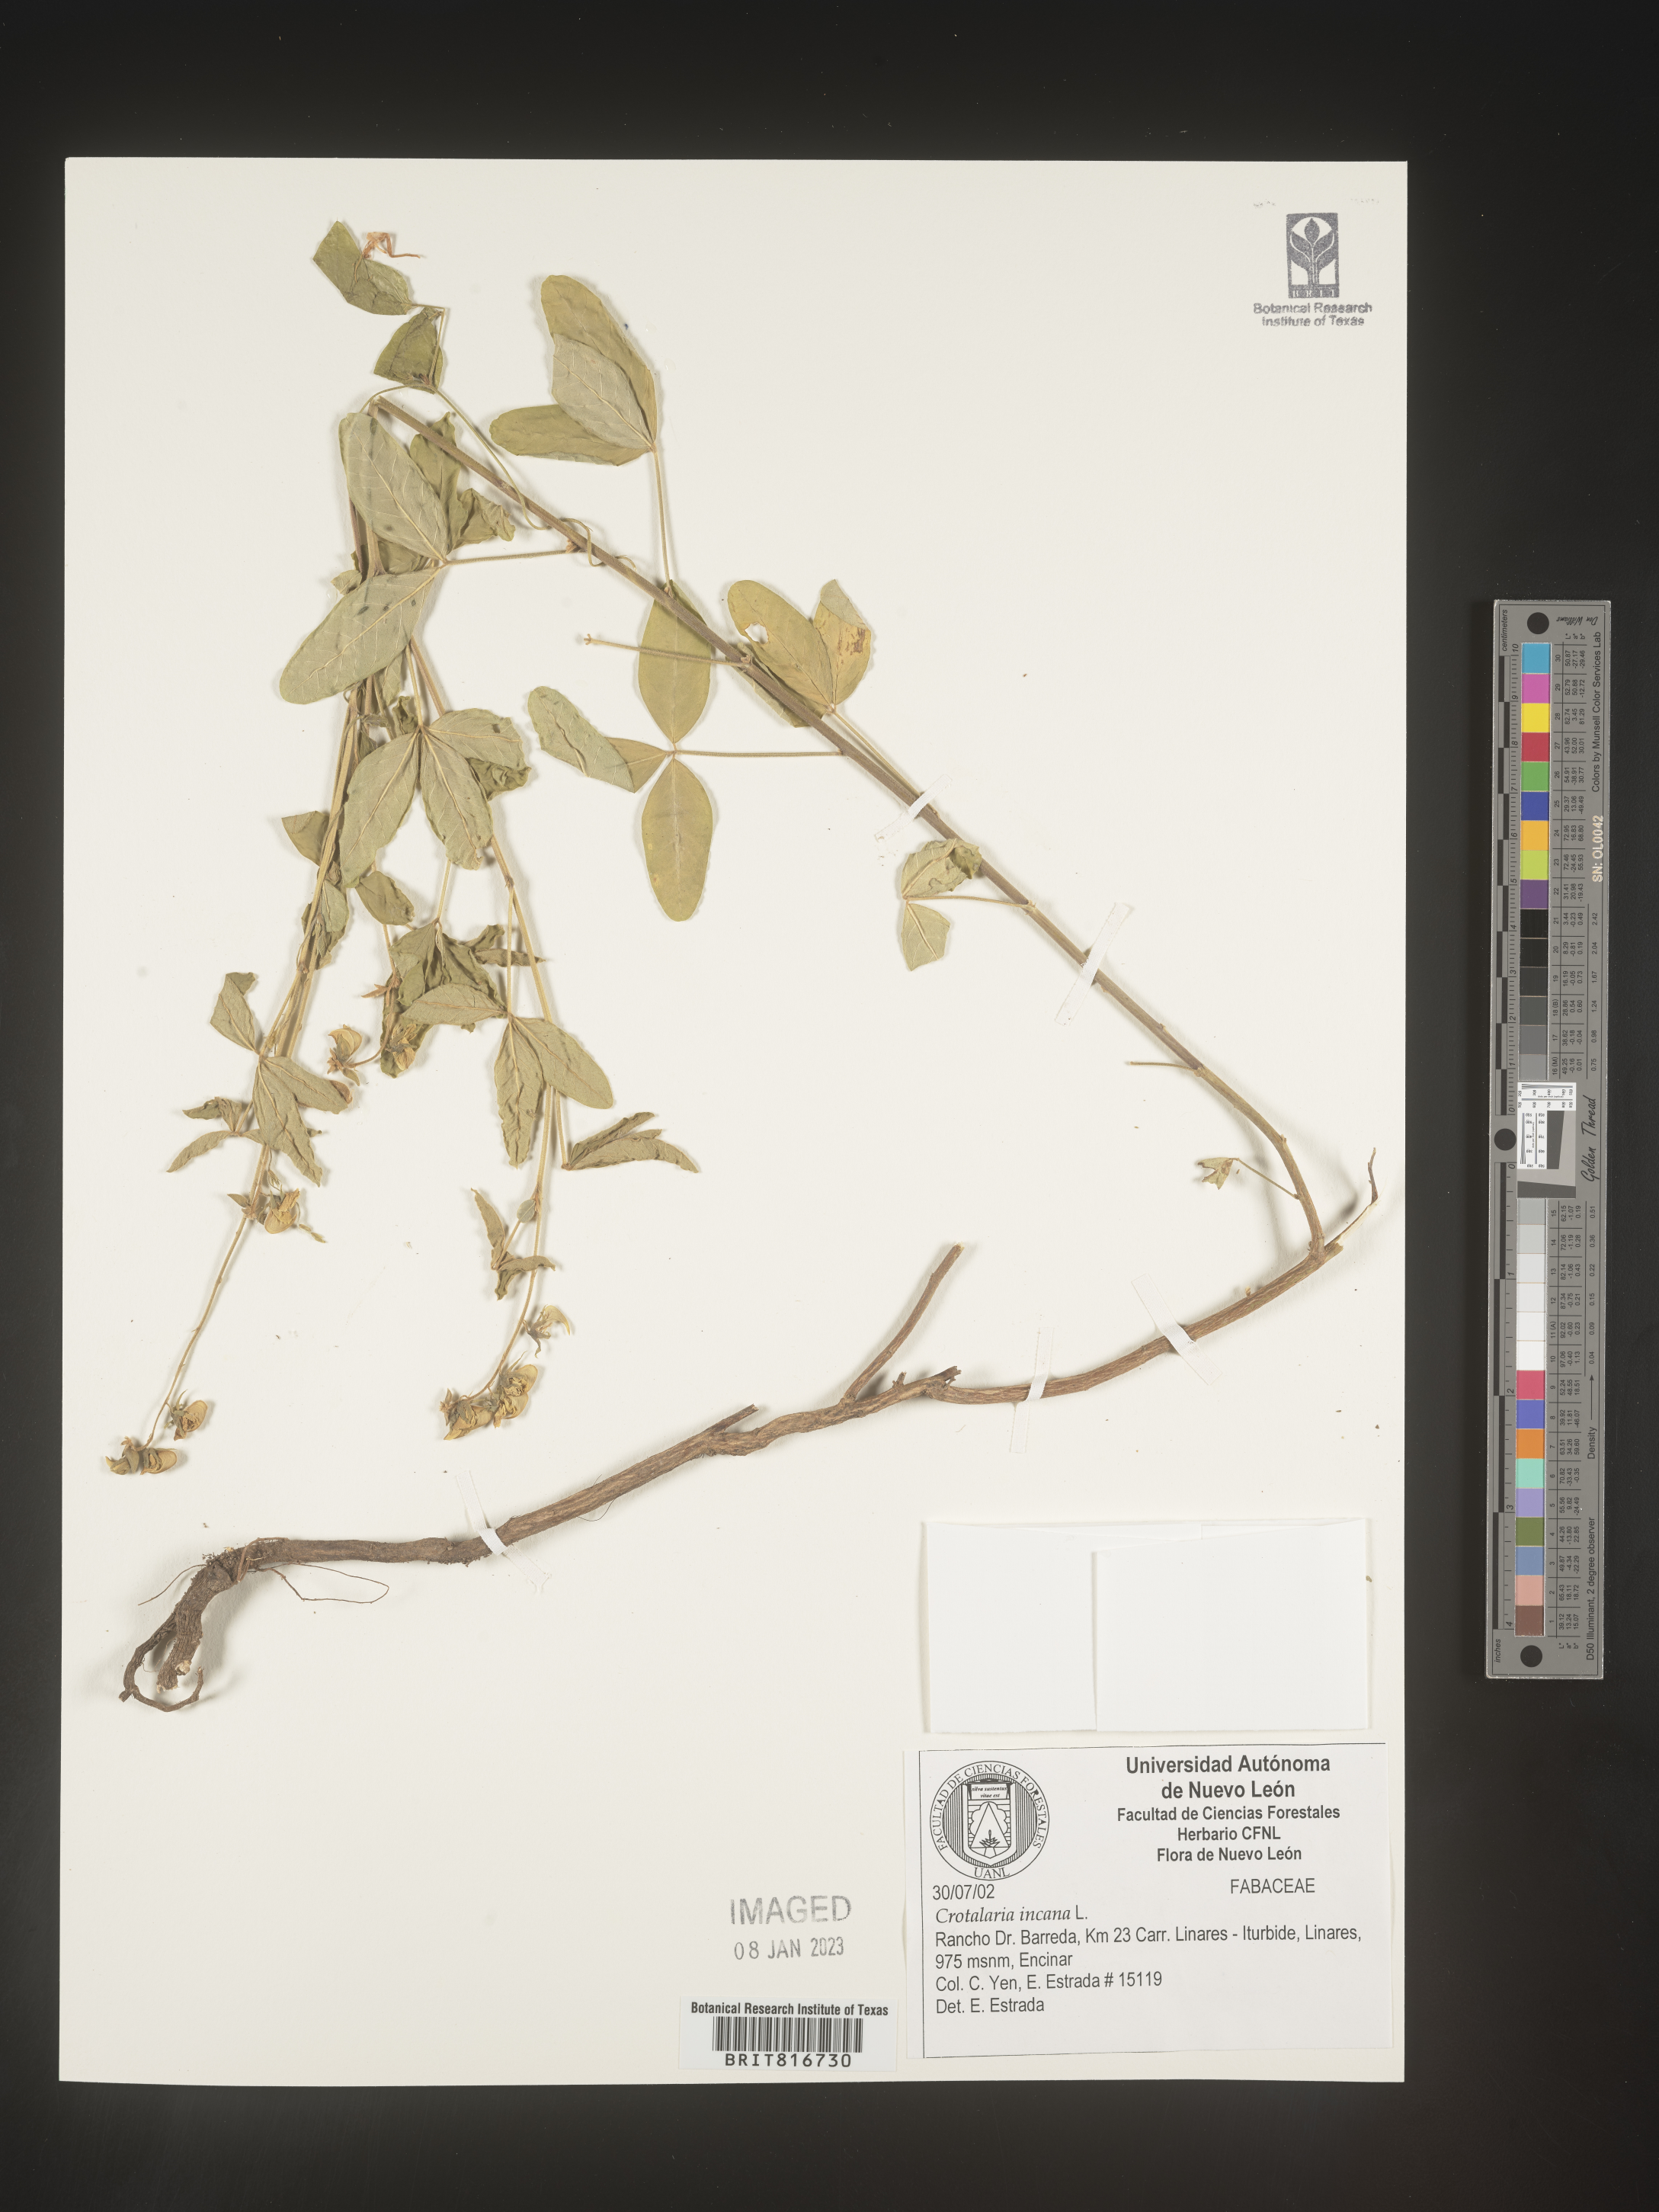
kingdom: Plantae
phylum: Tracheophyta
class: Magnoliopsida
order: Fabales
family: Fabaceae
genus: Crotalaria
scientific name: Crotalaria
